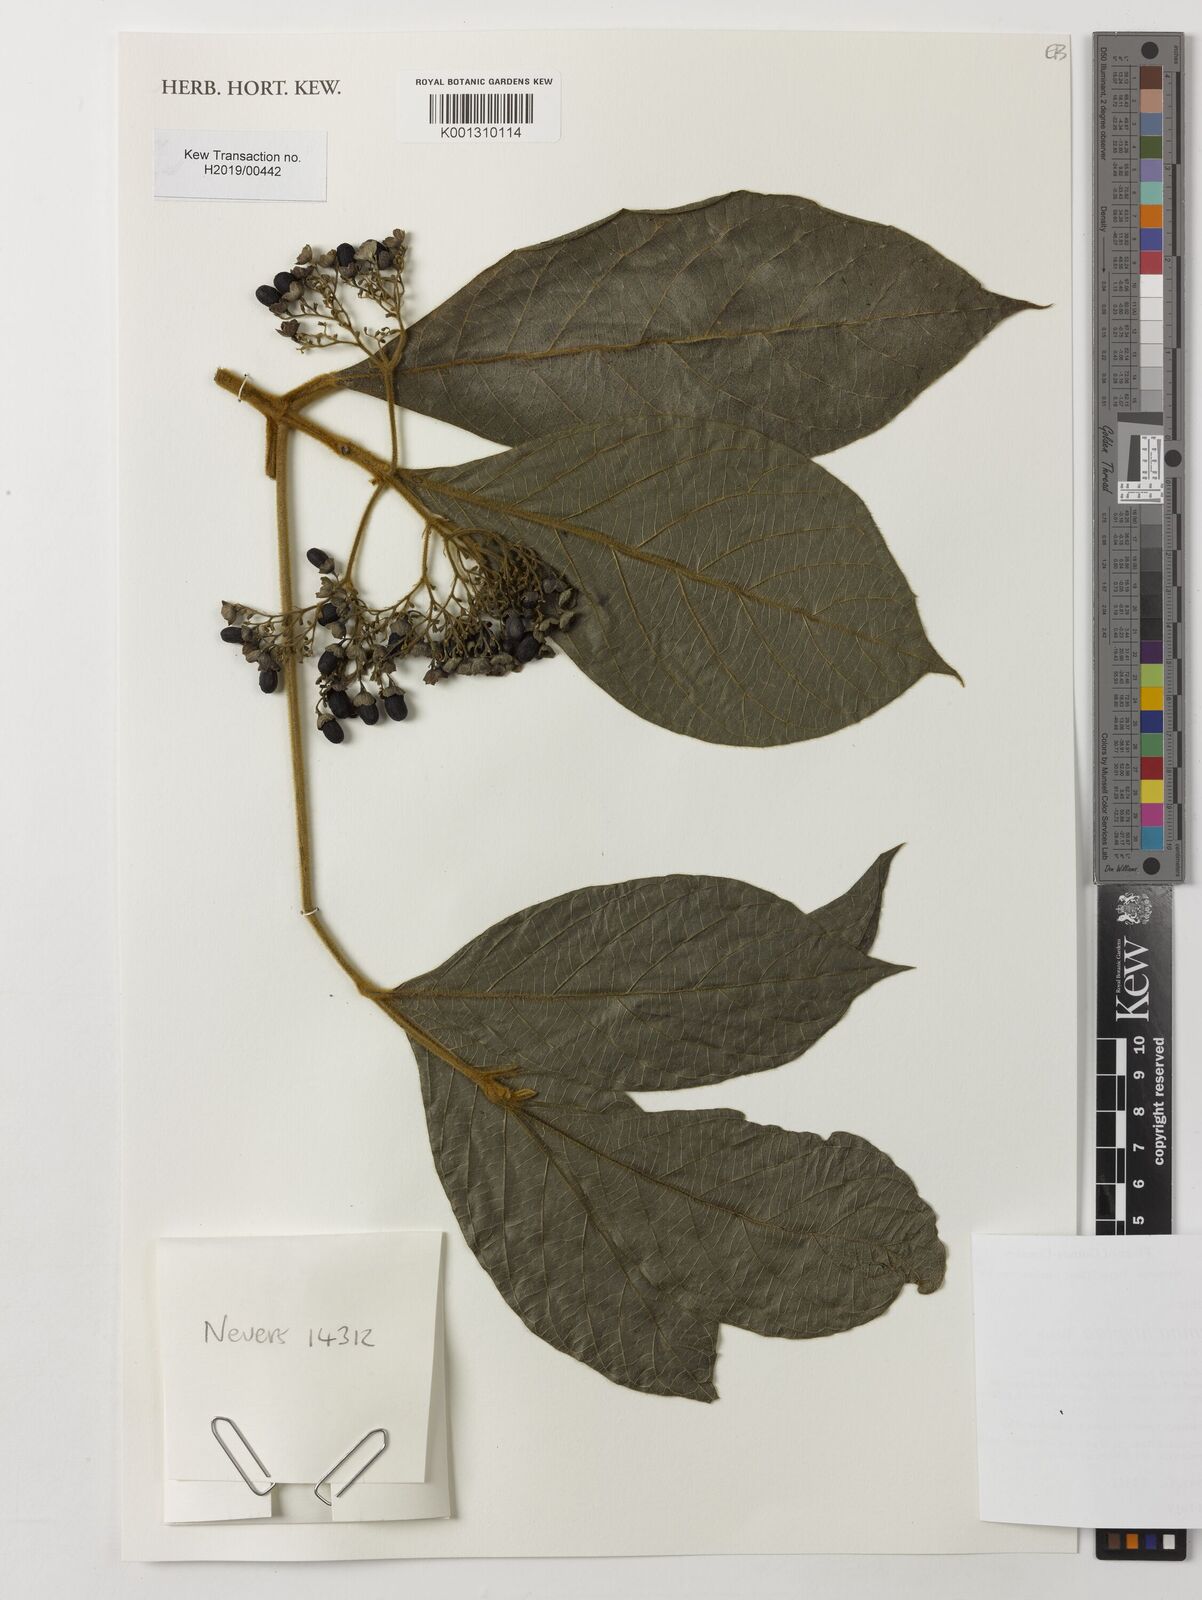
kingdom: Plantae
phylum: Tracheophyta
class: Magnoliopsida
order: Lamiales
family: Lamiaceae
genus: Premna
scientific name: Premna hispida
